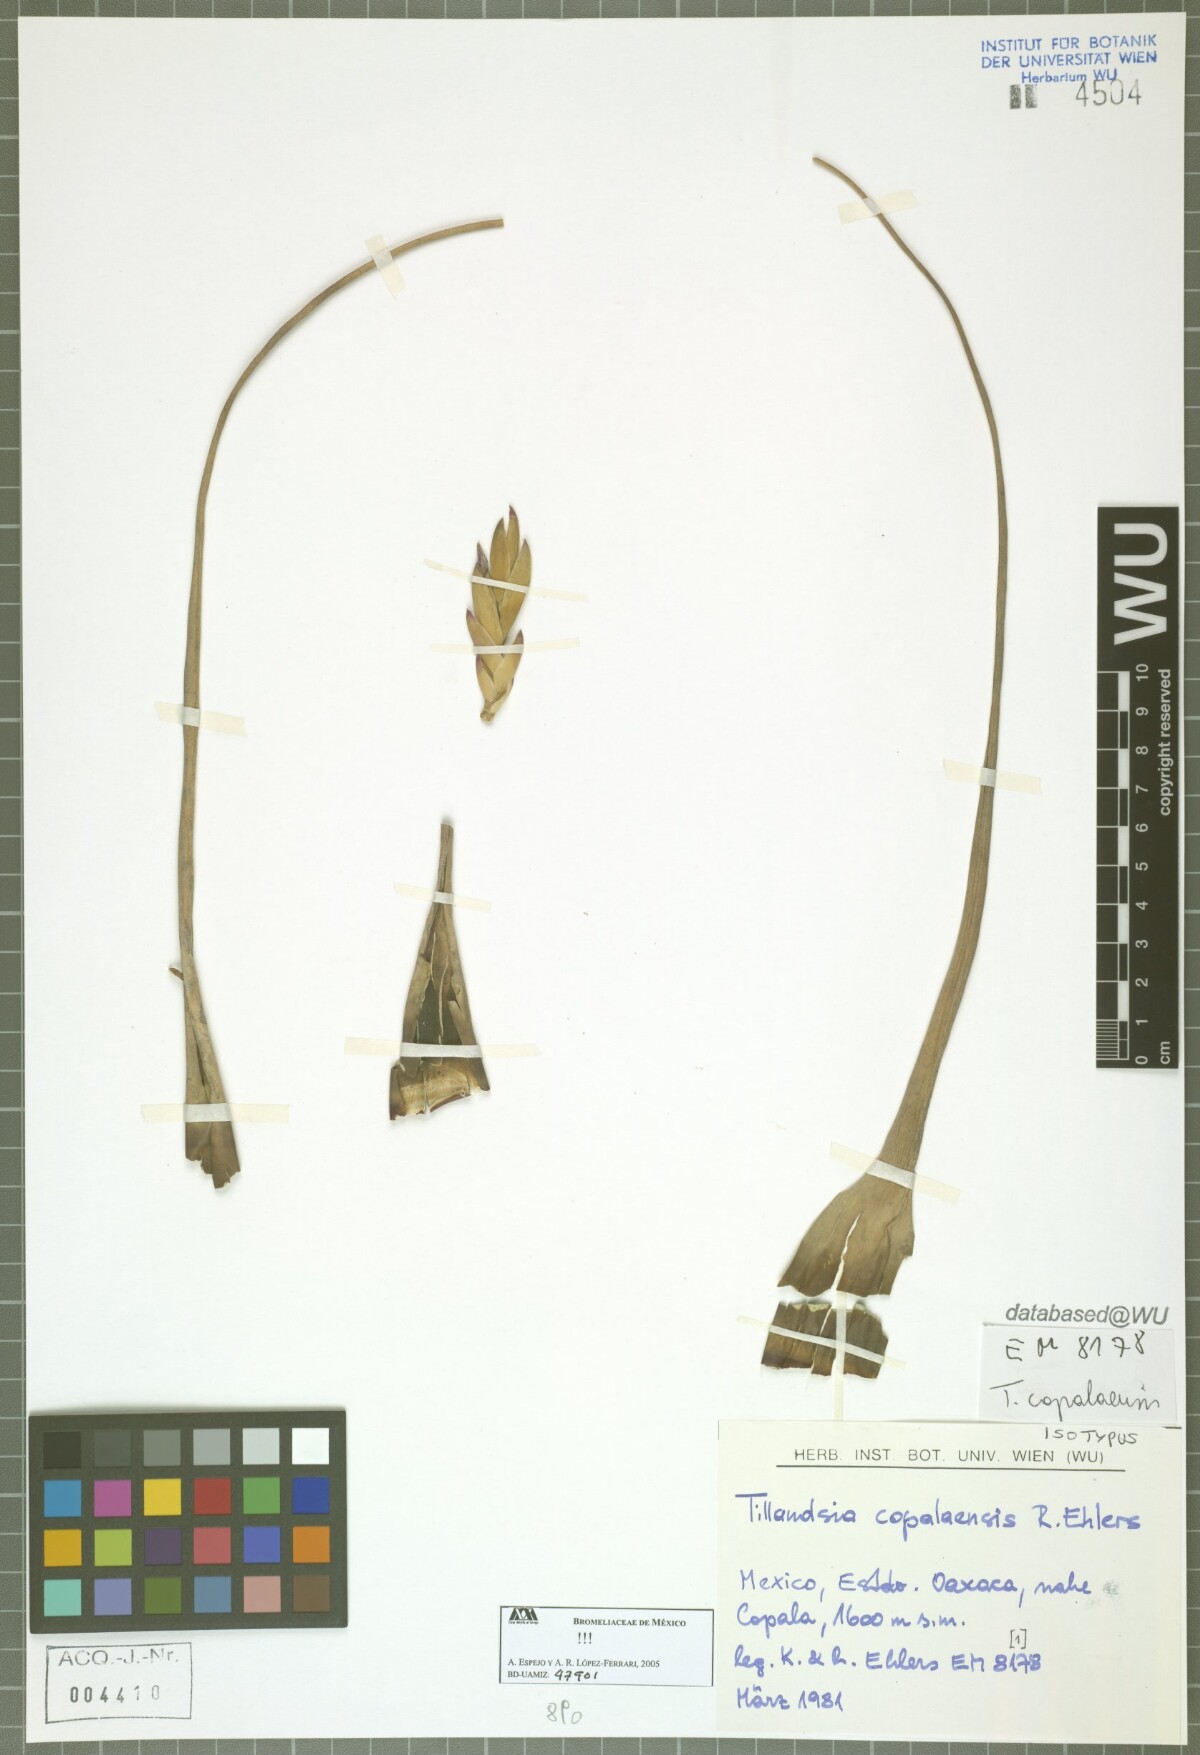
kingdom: Plantae
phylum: Tracheophyta
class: Liliopsida
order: Poales
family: Bromeliaceae
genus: Tillandsia
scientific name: Tillandsia copalaensis
